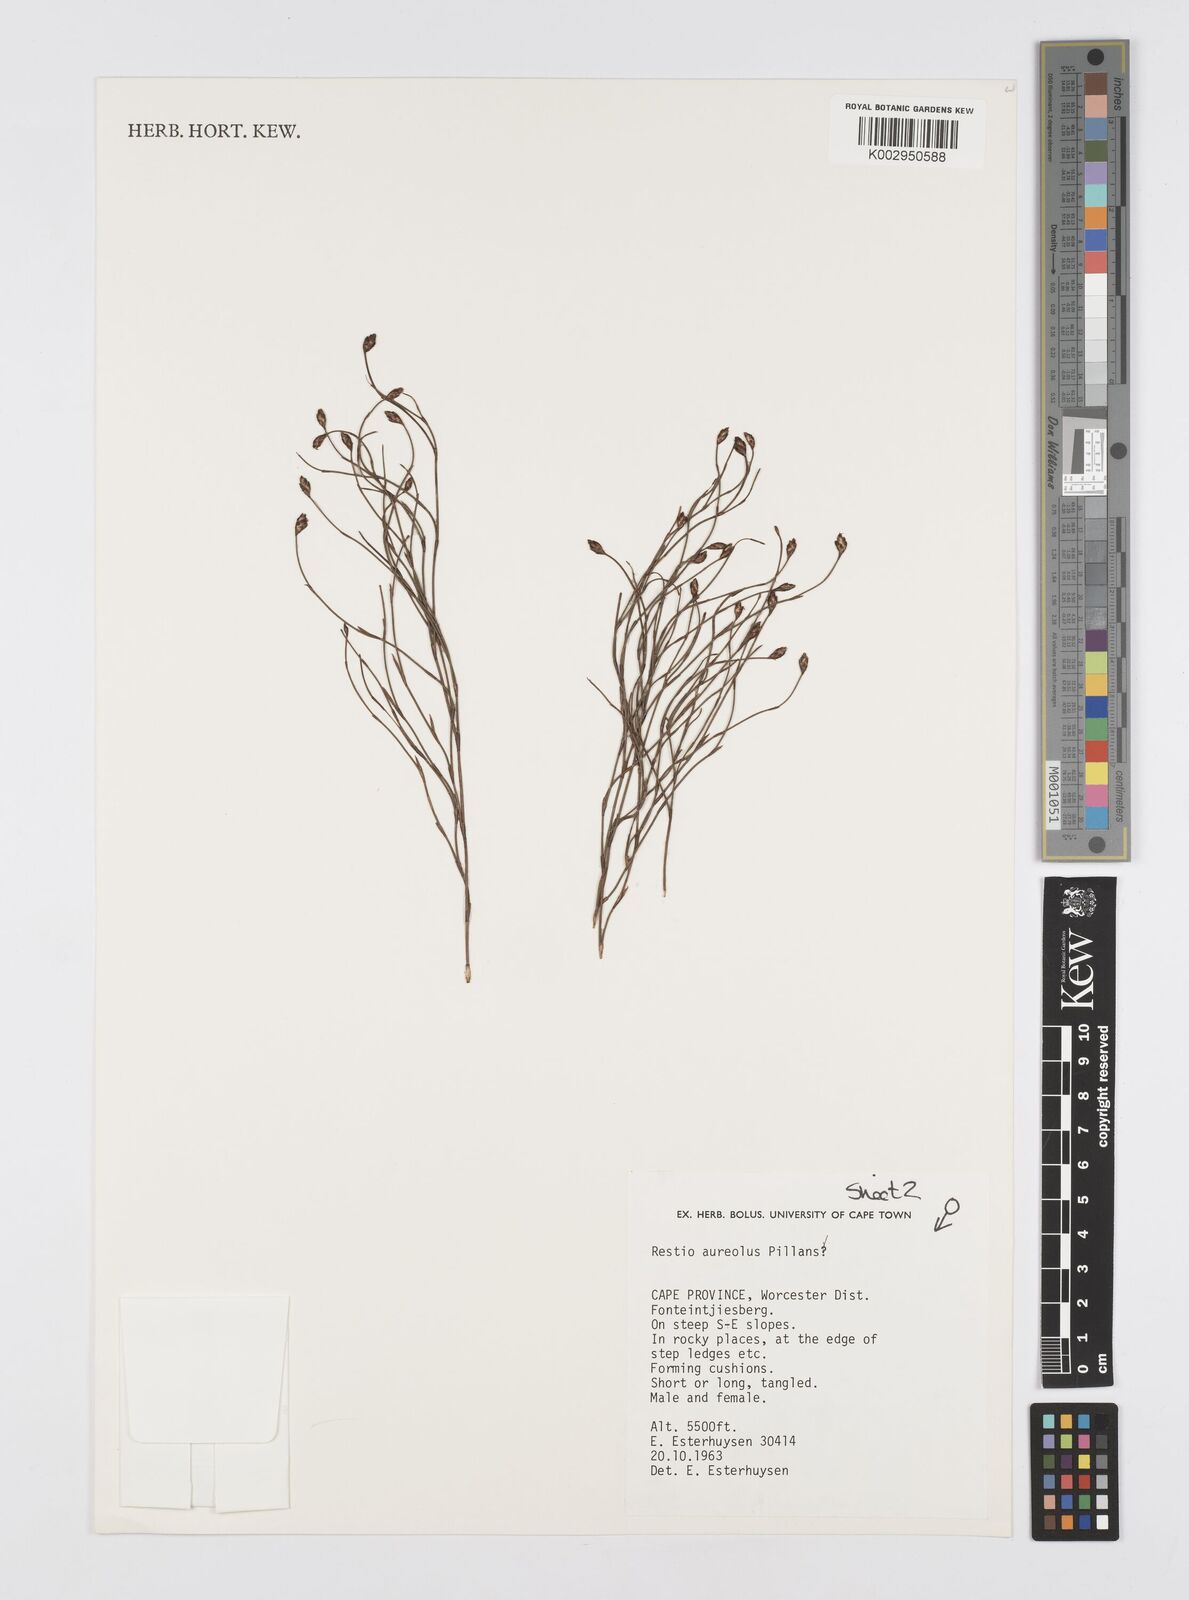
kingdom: Plantae
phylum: Tracheophyta
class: Liliopsida
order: Poales
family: Restionaceae
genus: Restio
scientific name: Restio aureolus
